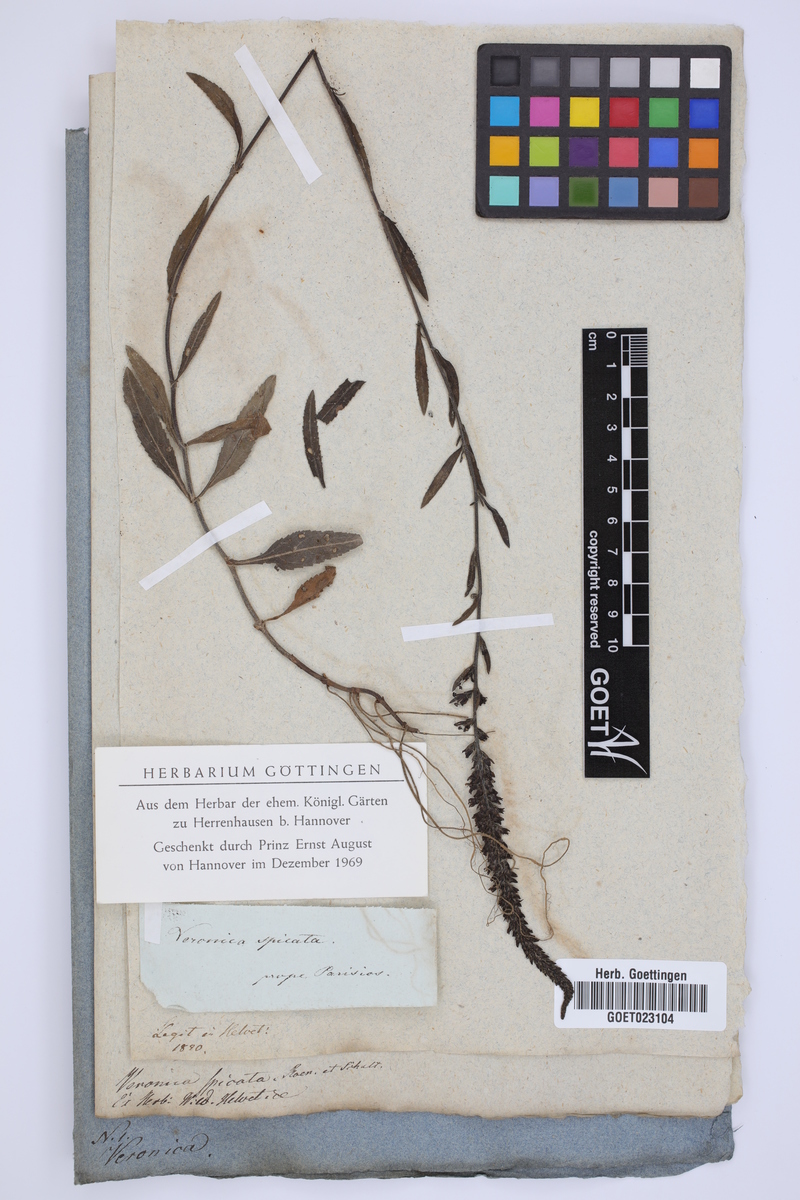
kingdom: Plantae
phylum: Tracheophyta
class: Magnoliopsida
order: Lamiales
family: Plantaginaceae
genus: Veronica
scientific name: Veronica spicata
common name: Spiked speedwell
